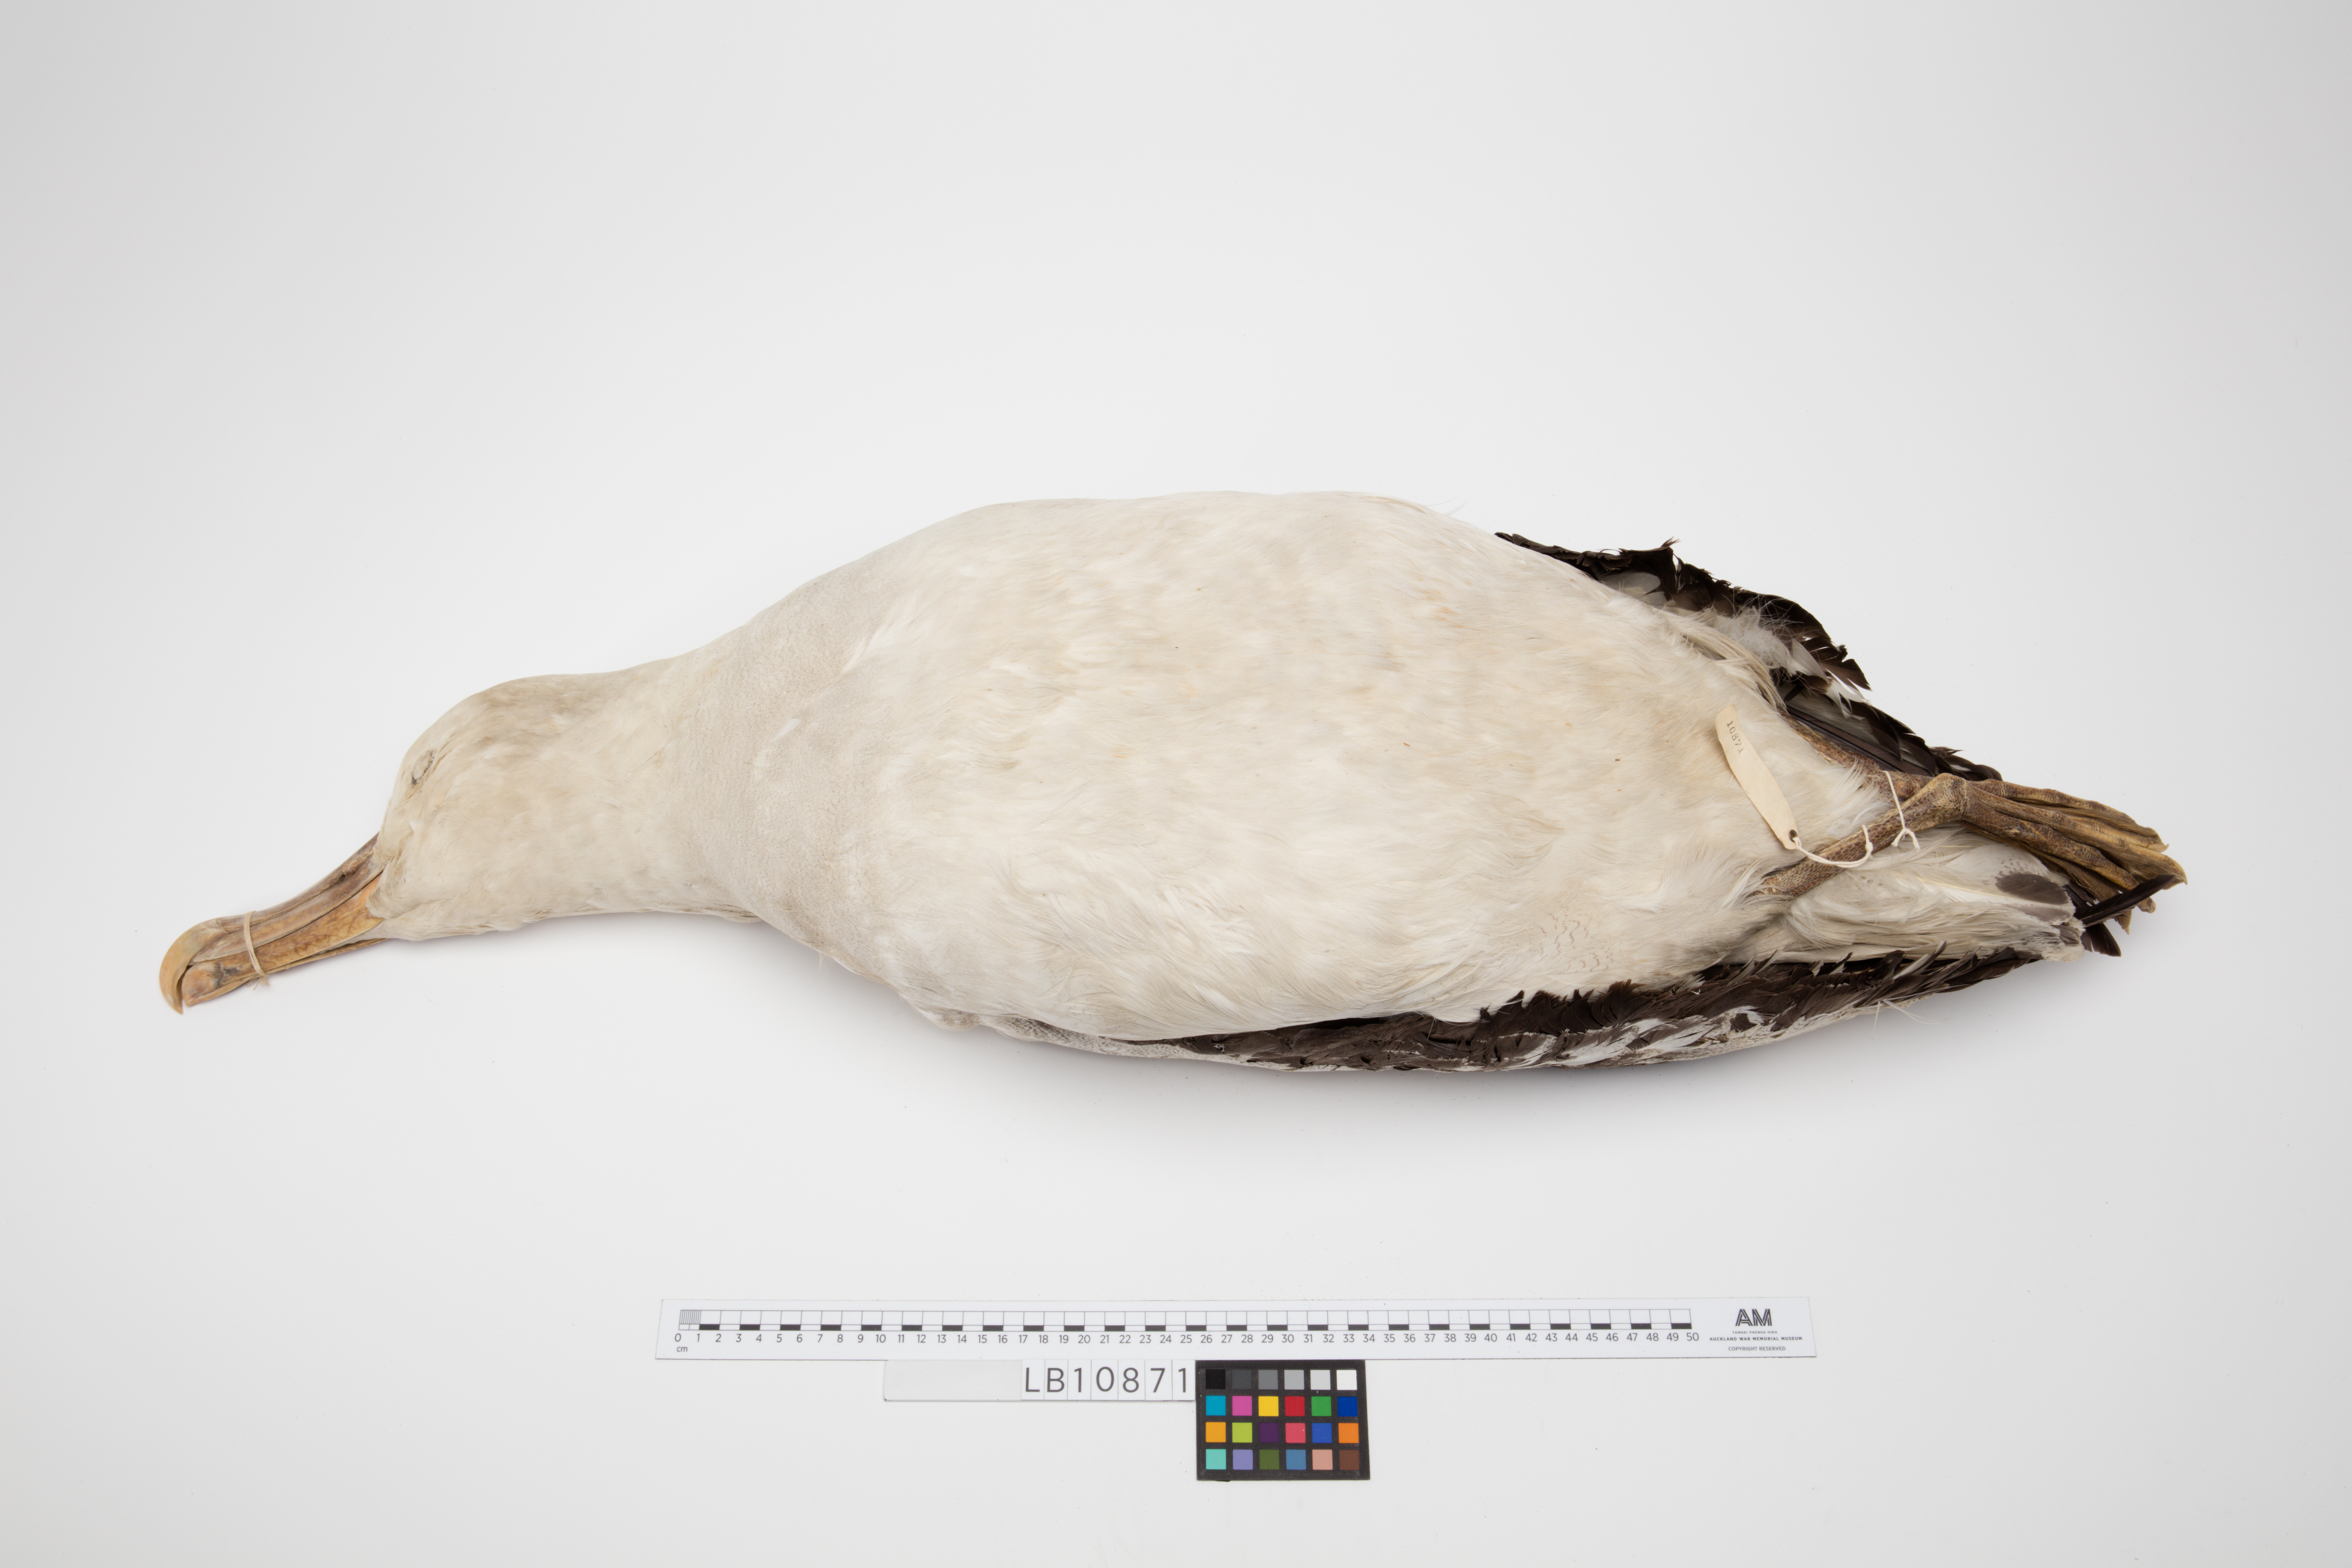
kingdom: Animalia
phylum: Chordata
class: Aves
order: Procellariiformes
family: Diomedeidae
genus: Diomedea
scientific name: Diomedea antipodensis
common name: Antipodean albatross
